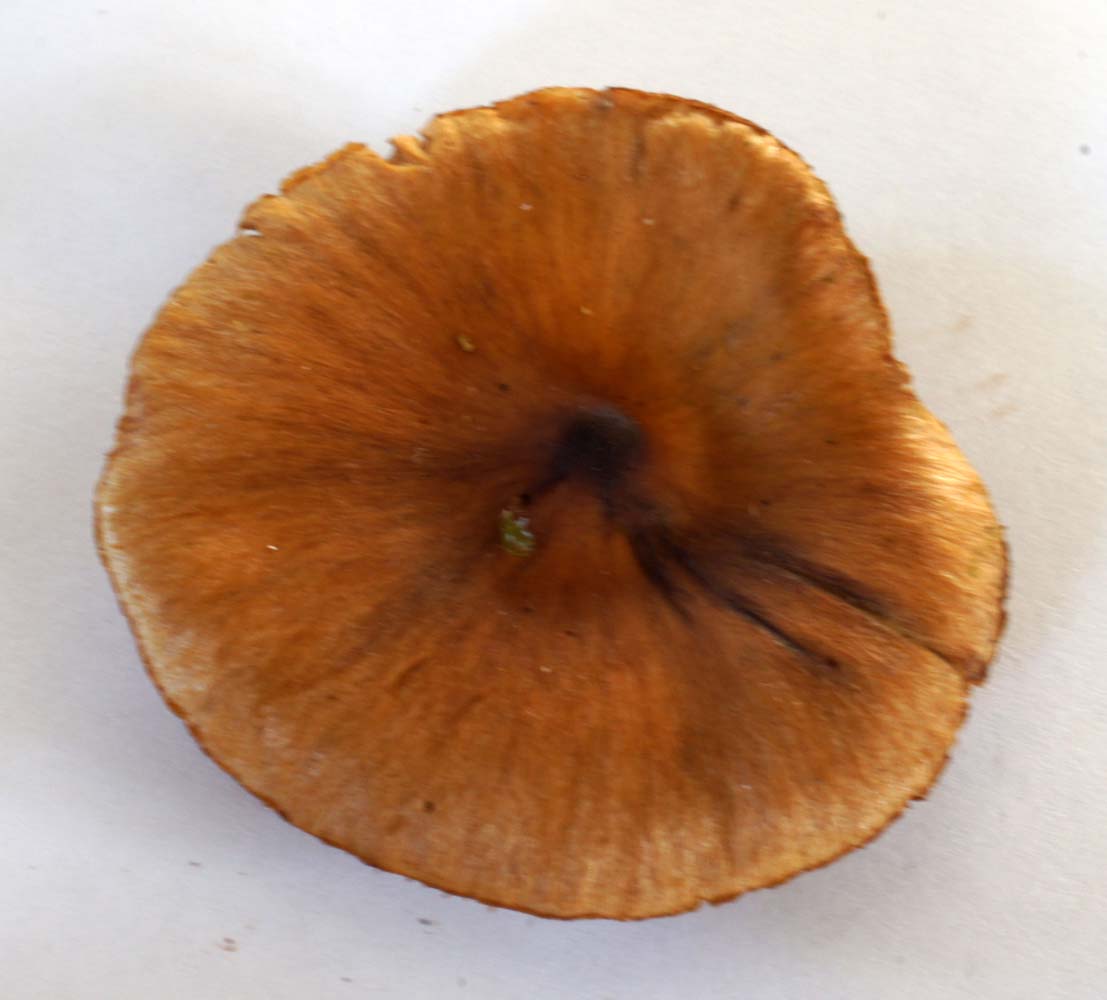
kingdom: Fungi
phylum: Basidiomycota
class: Agaricomycetes
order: Agaricales
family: Cortinariaceae
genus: Cortinarius
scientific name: Cortinarius kauffmanianus
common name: plantage-slørhat
